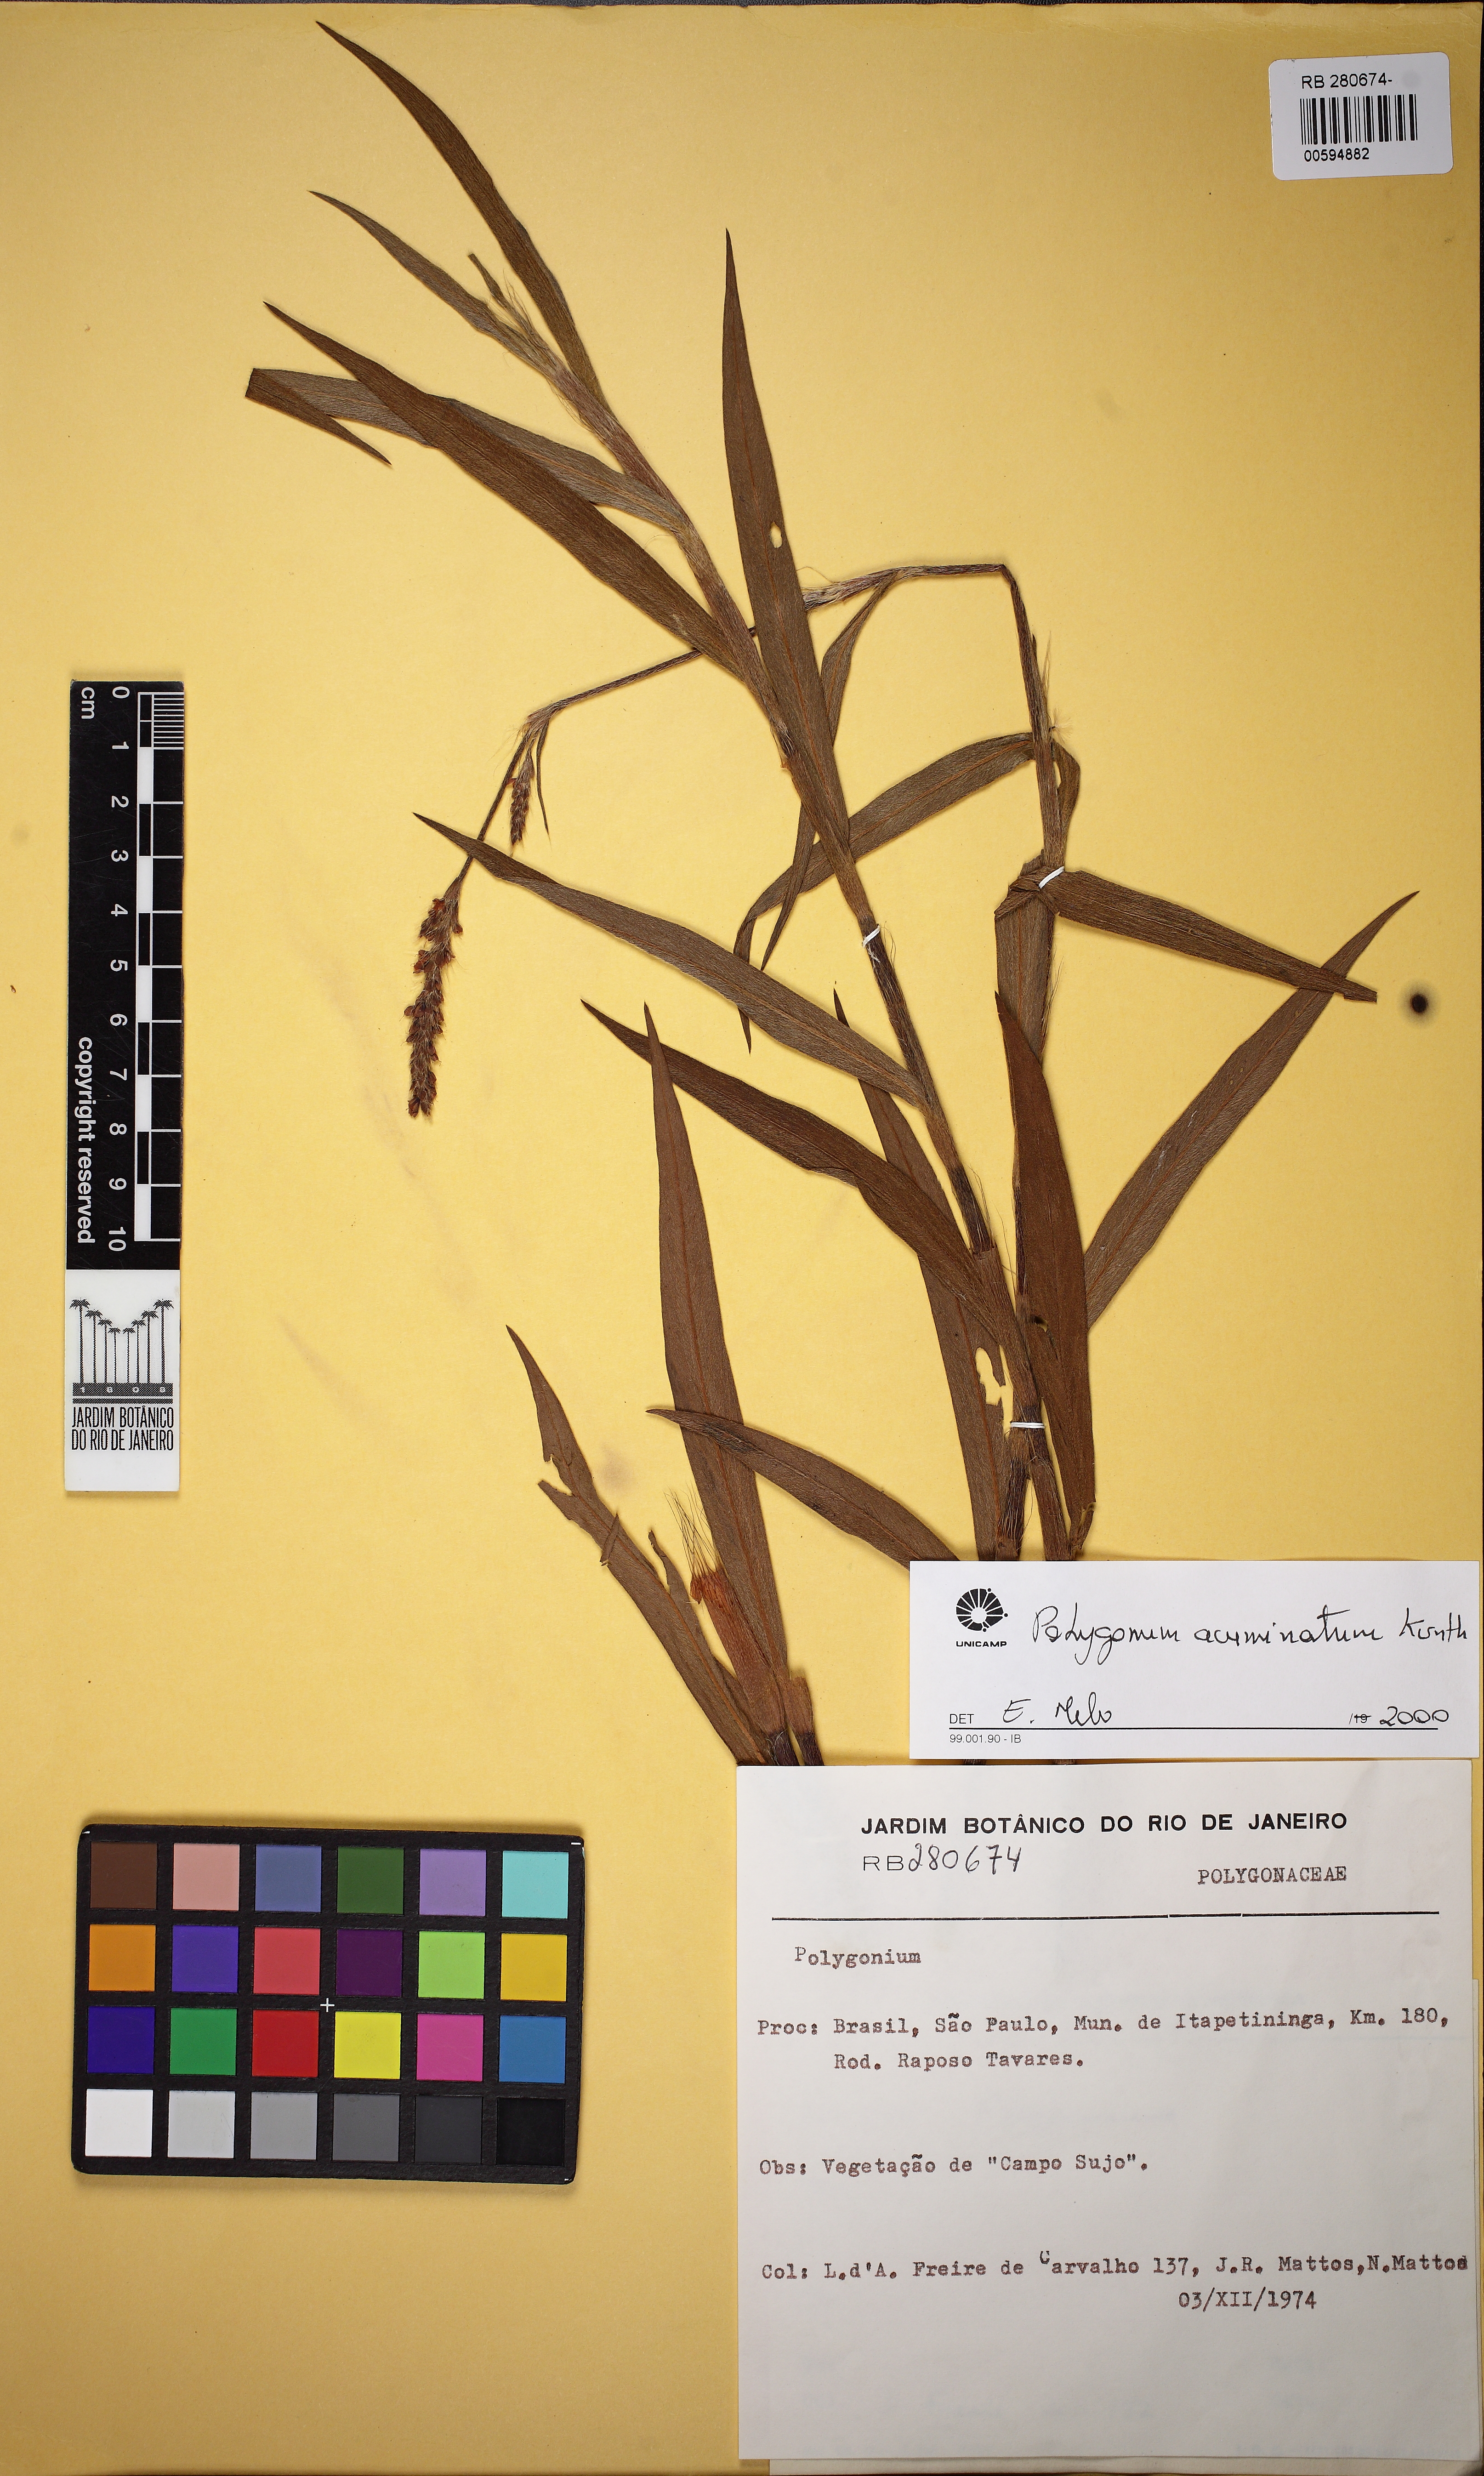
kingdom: Plantae
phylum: Tracheophyta
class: Magnoliopsida
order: Caryophyllales
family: Polygonaceae
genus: Persicaria
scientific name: Persicaria acuminata
